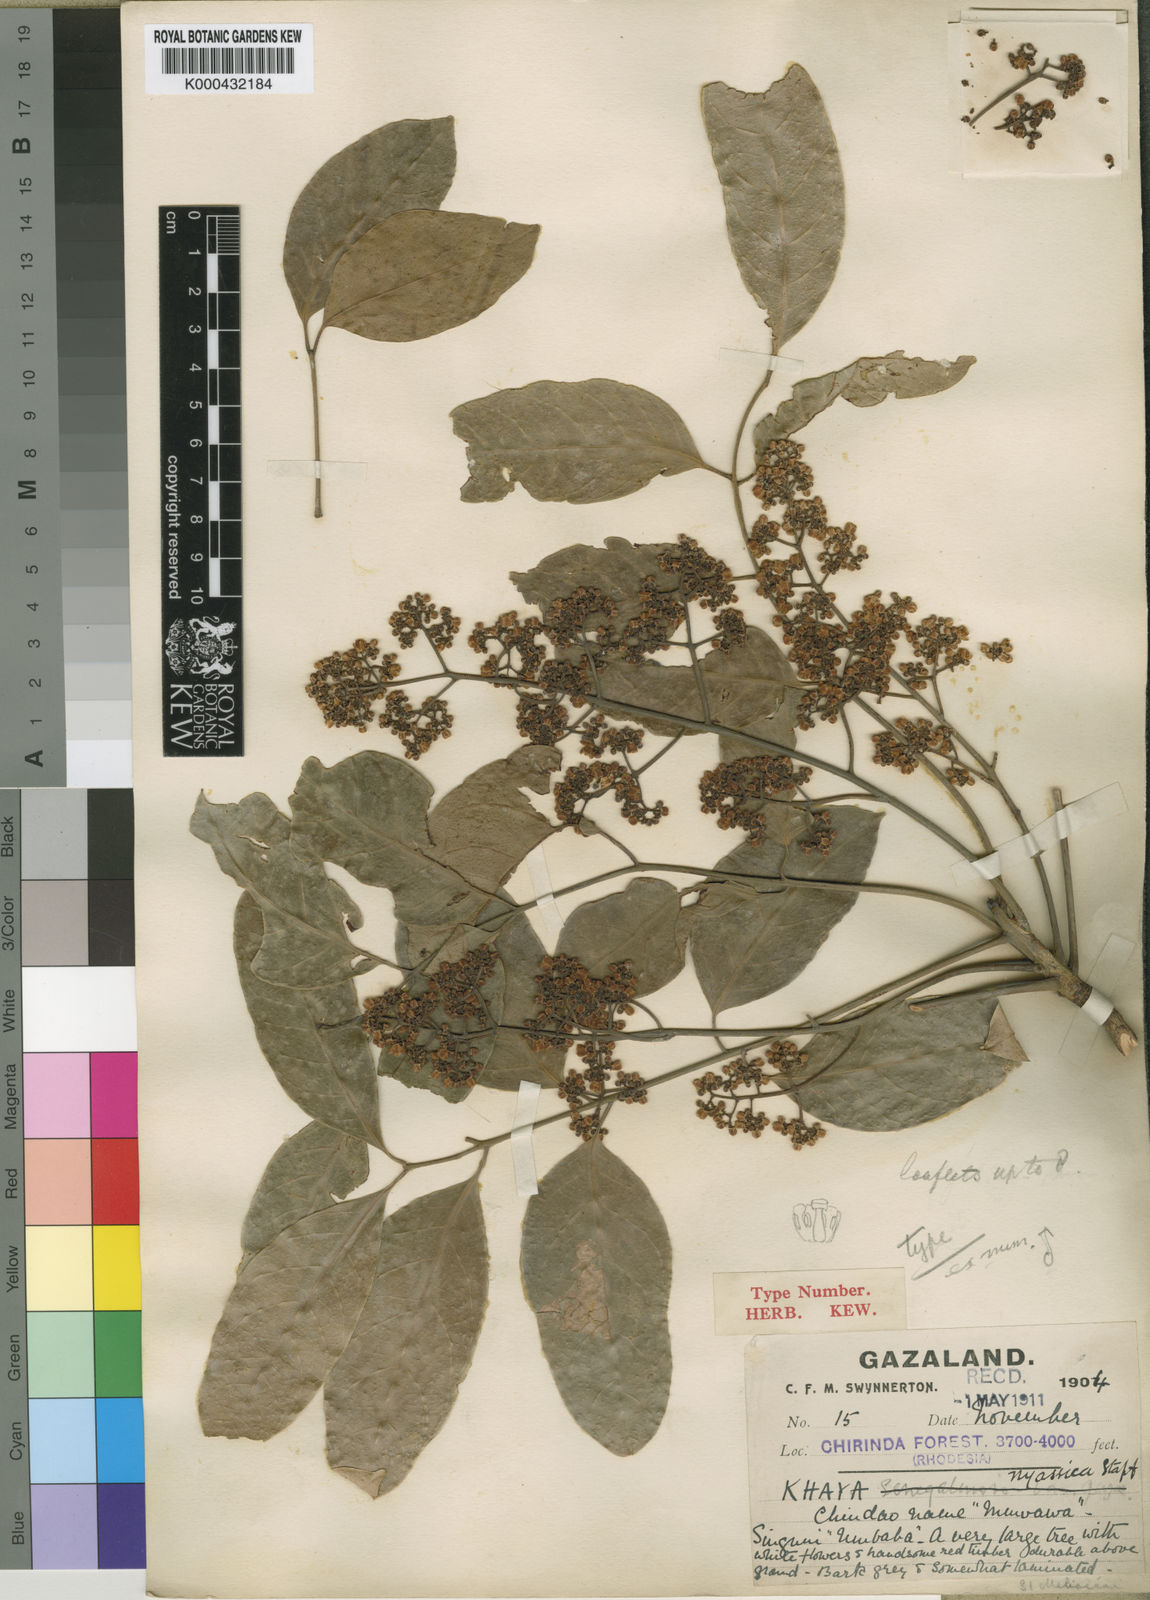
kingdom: Plantae
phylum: Tracheophyta
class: Magnoliopsida
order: Sapindales
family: Meliaceae
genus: Khaya
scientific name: Khaya nyasica
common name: Nyasaland mahogany
